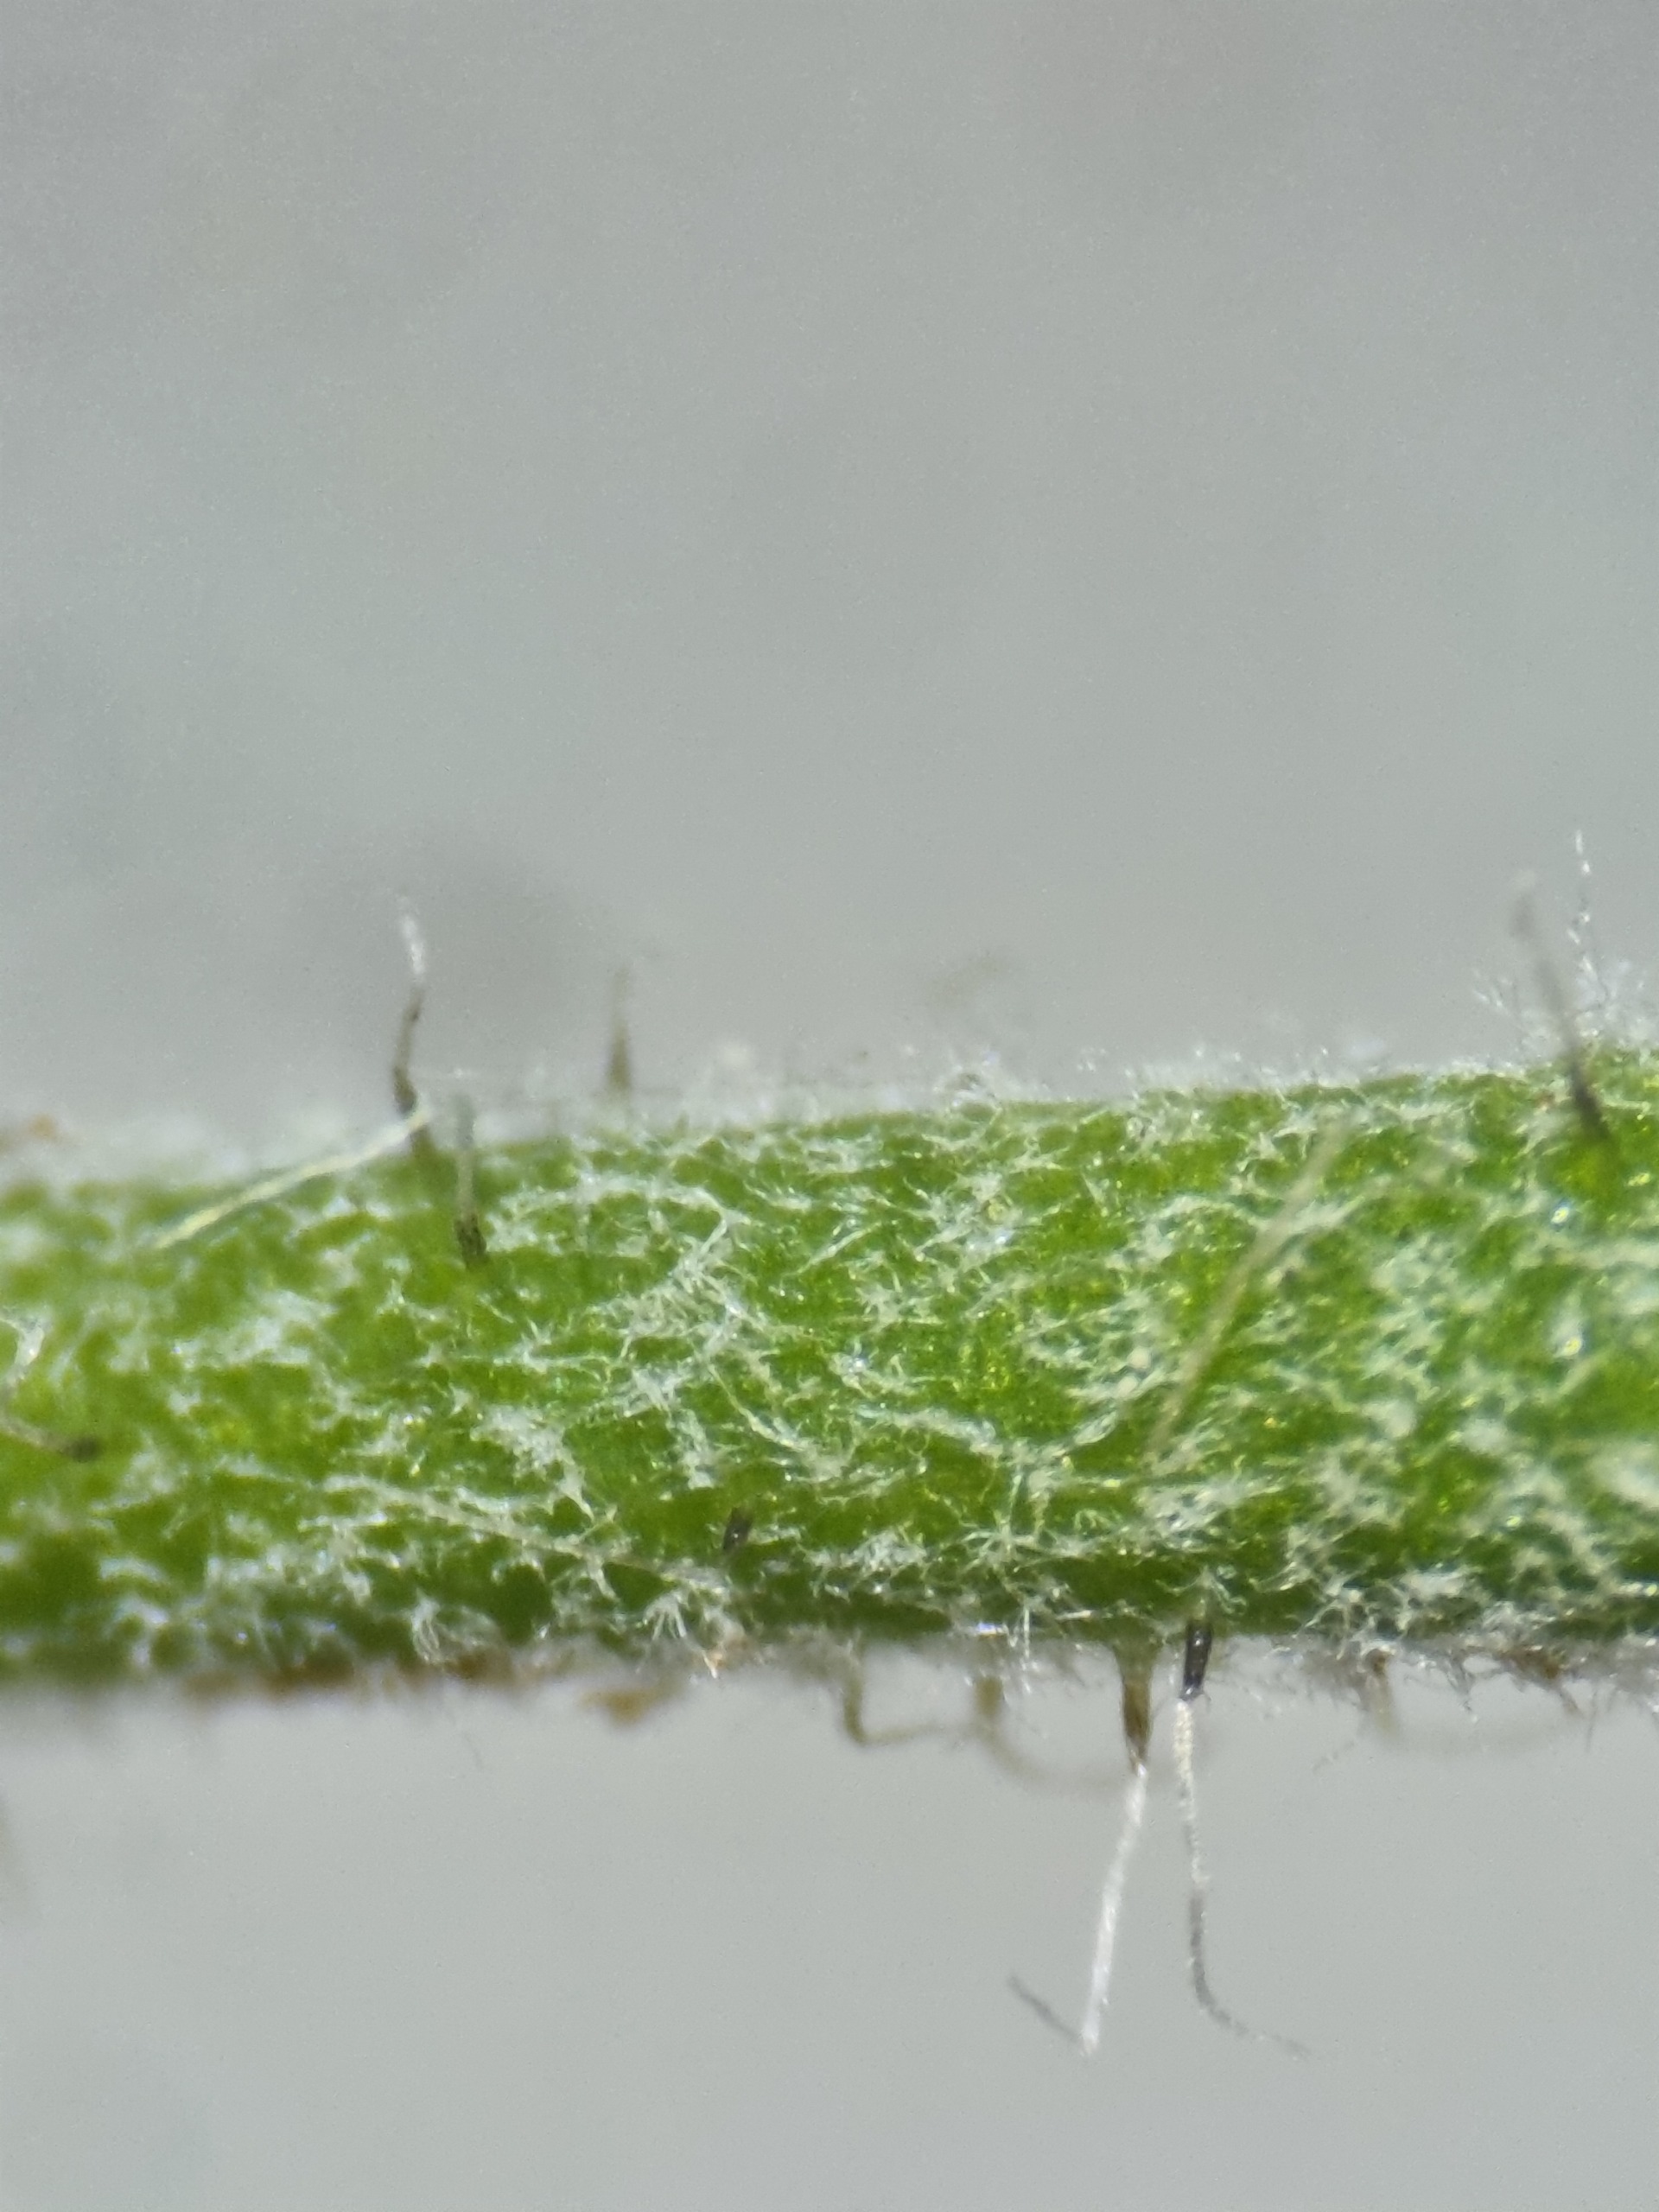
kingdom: Plantae
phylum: Tracheophyta
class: Magnoliopsida
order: Asterales
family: Asteraceae
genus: Hieracium
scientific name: Hieracium vulgatum
